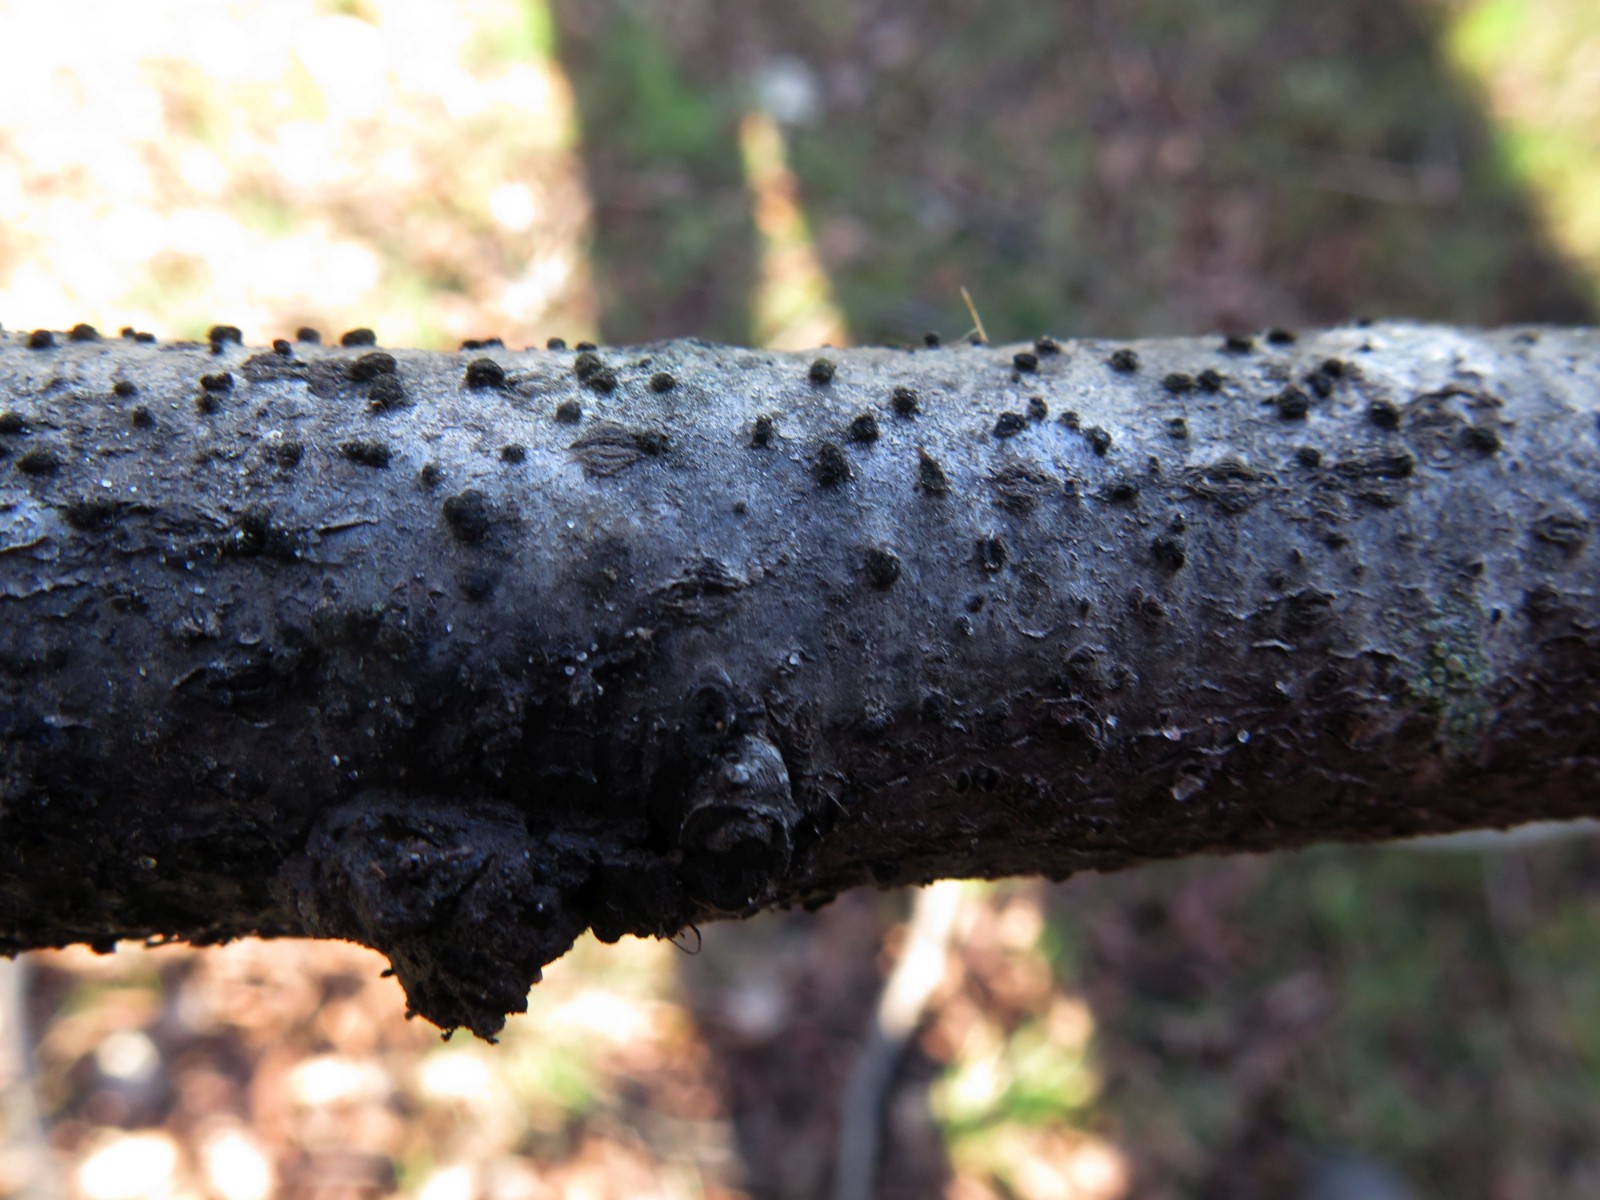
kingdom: Fungi
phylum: Ascomycota
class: Dothideomycetes
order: Pleosporales
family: Massarinaceae
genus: Helminthosporium
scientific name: Helminthosporium oligosporum
